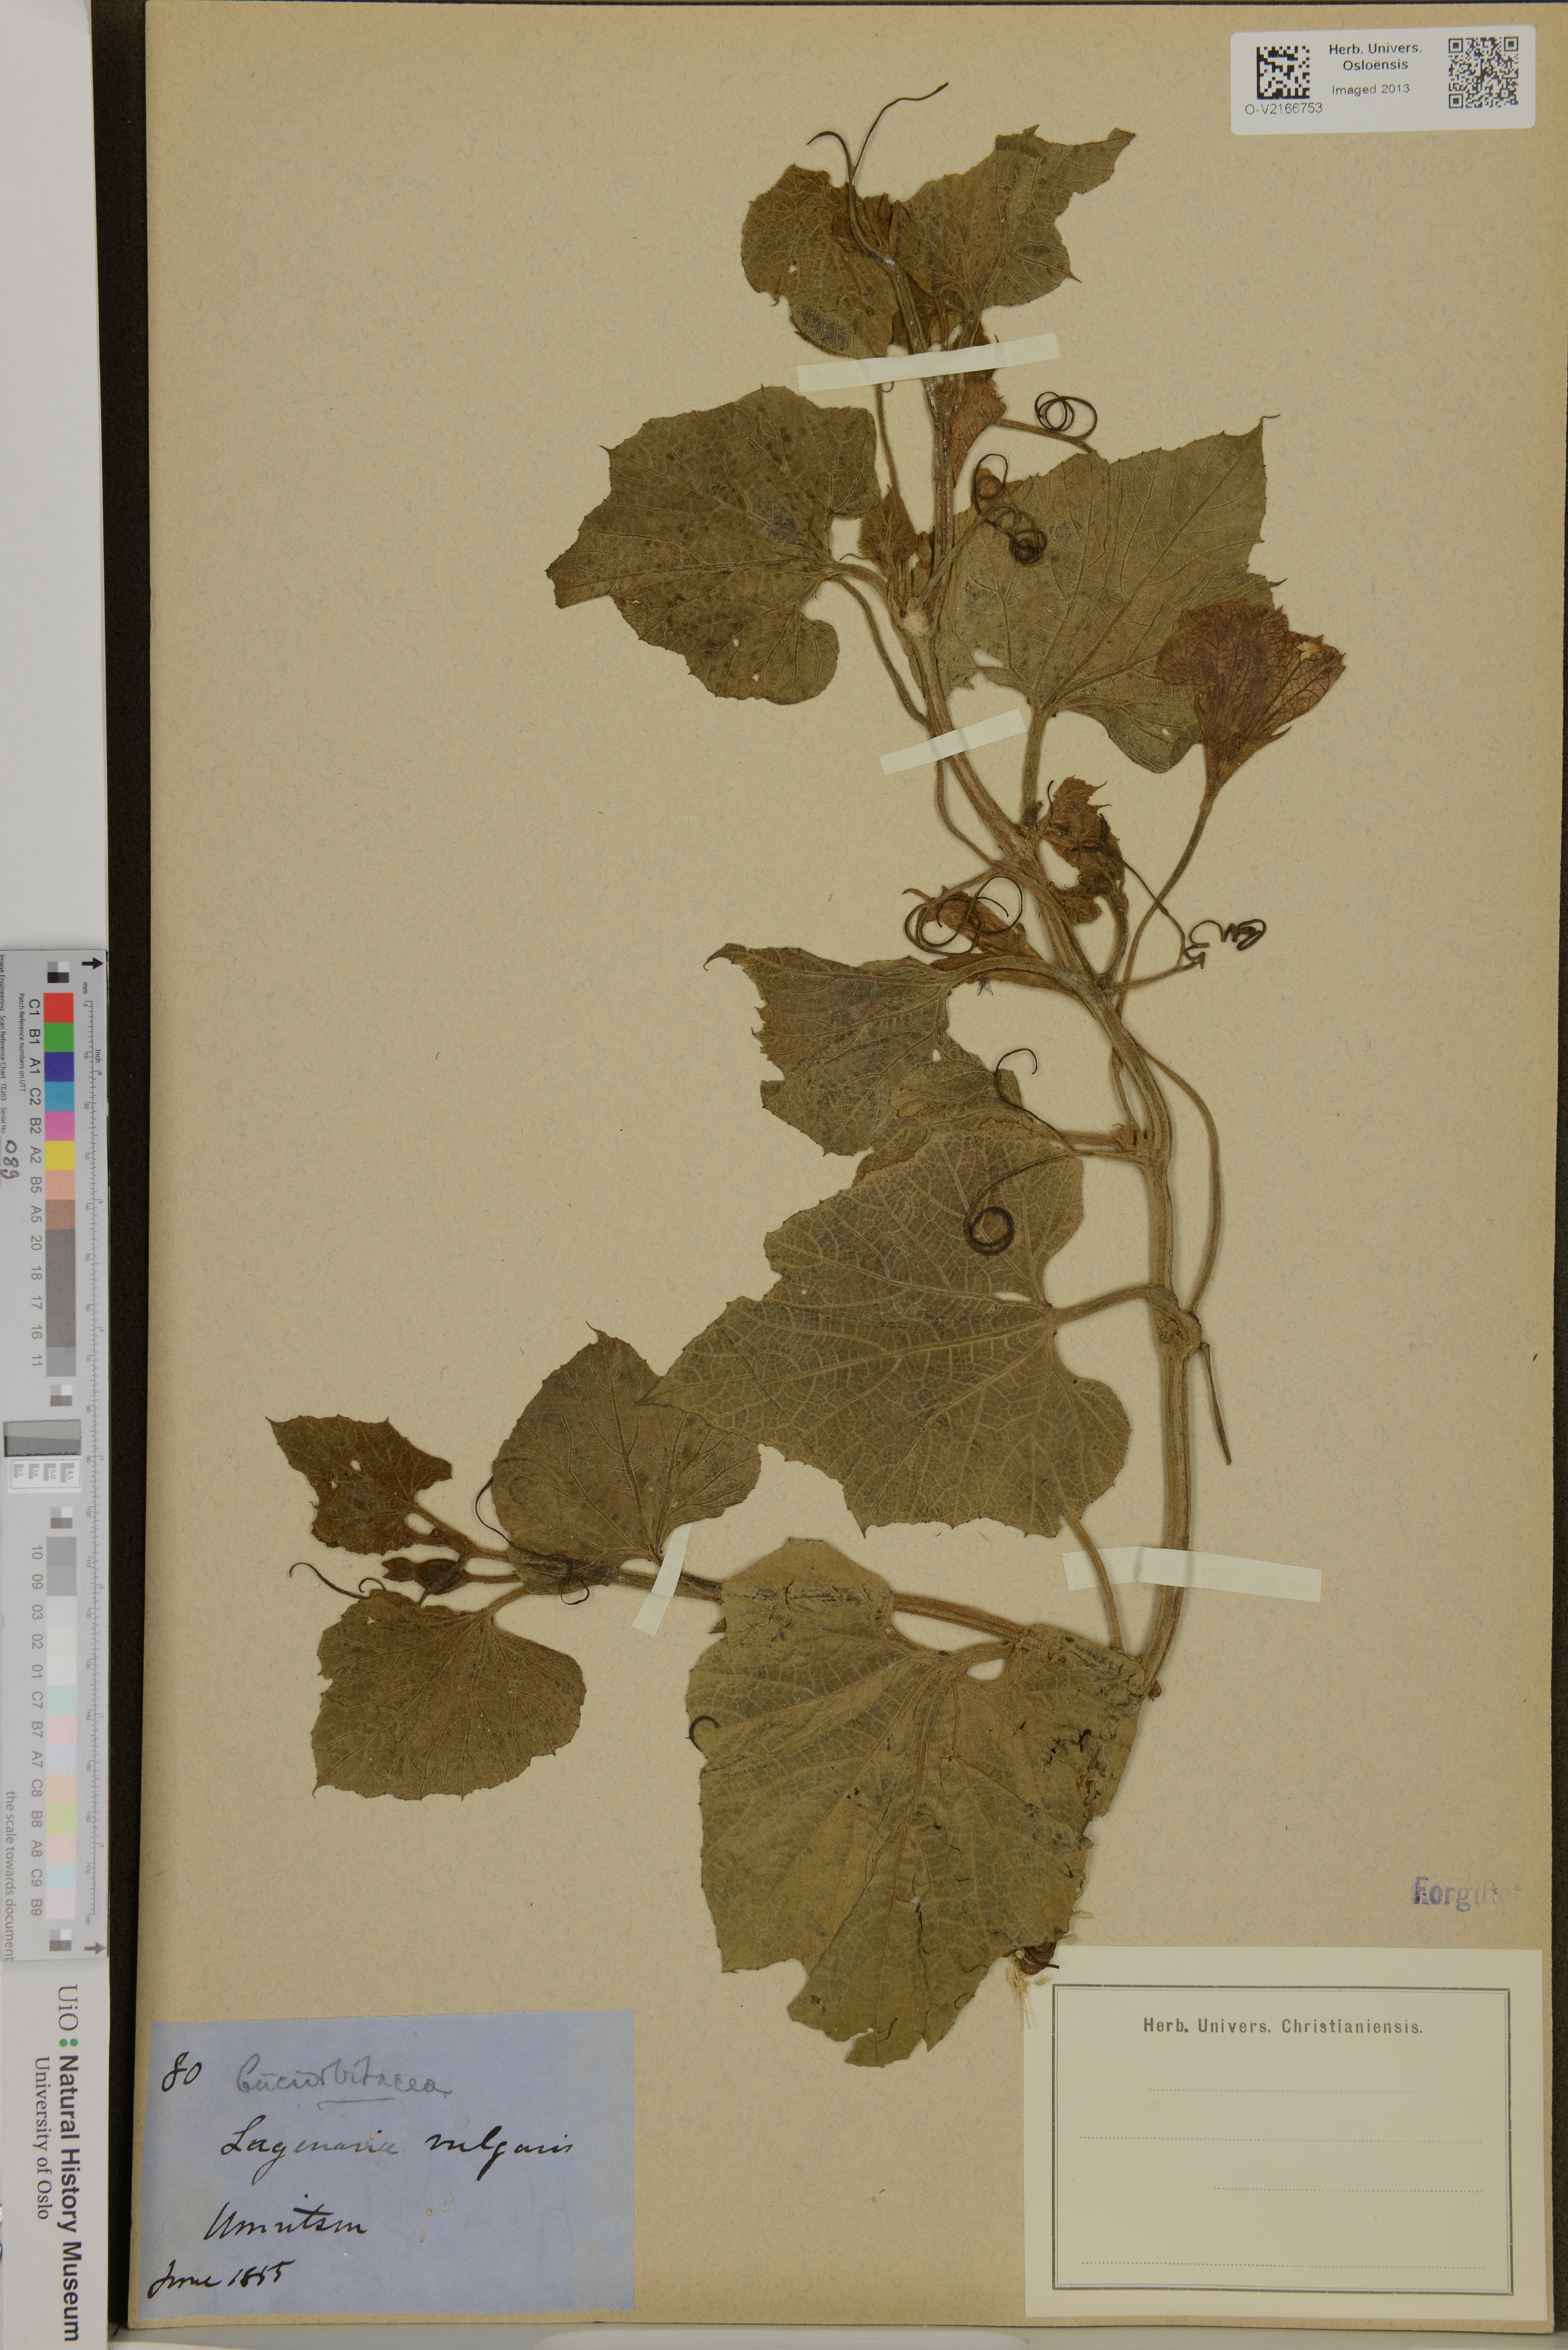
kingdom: Plantae
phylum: Tracheophyta
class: Magnoliopsida
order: Cucurbitales
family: Cucurbitaceae
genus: Lagenaria
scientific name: Lagenaria siceraria
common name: Bottle gourd
